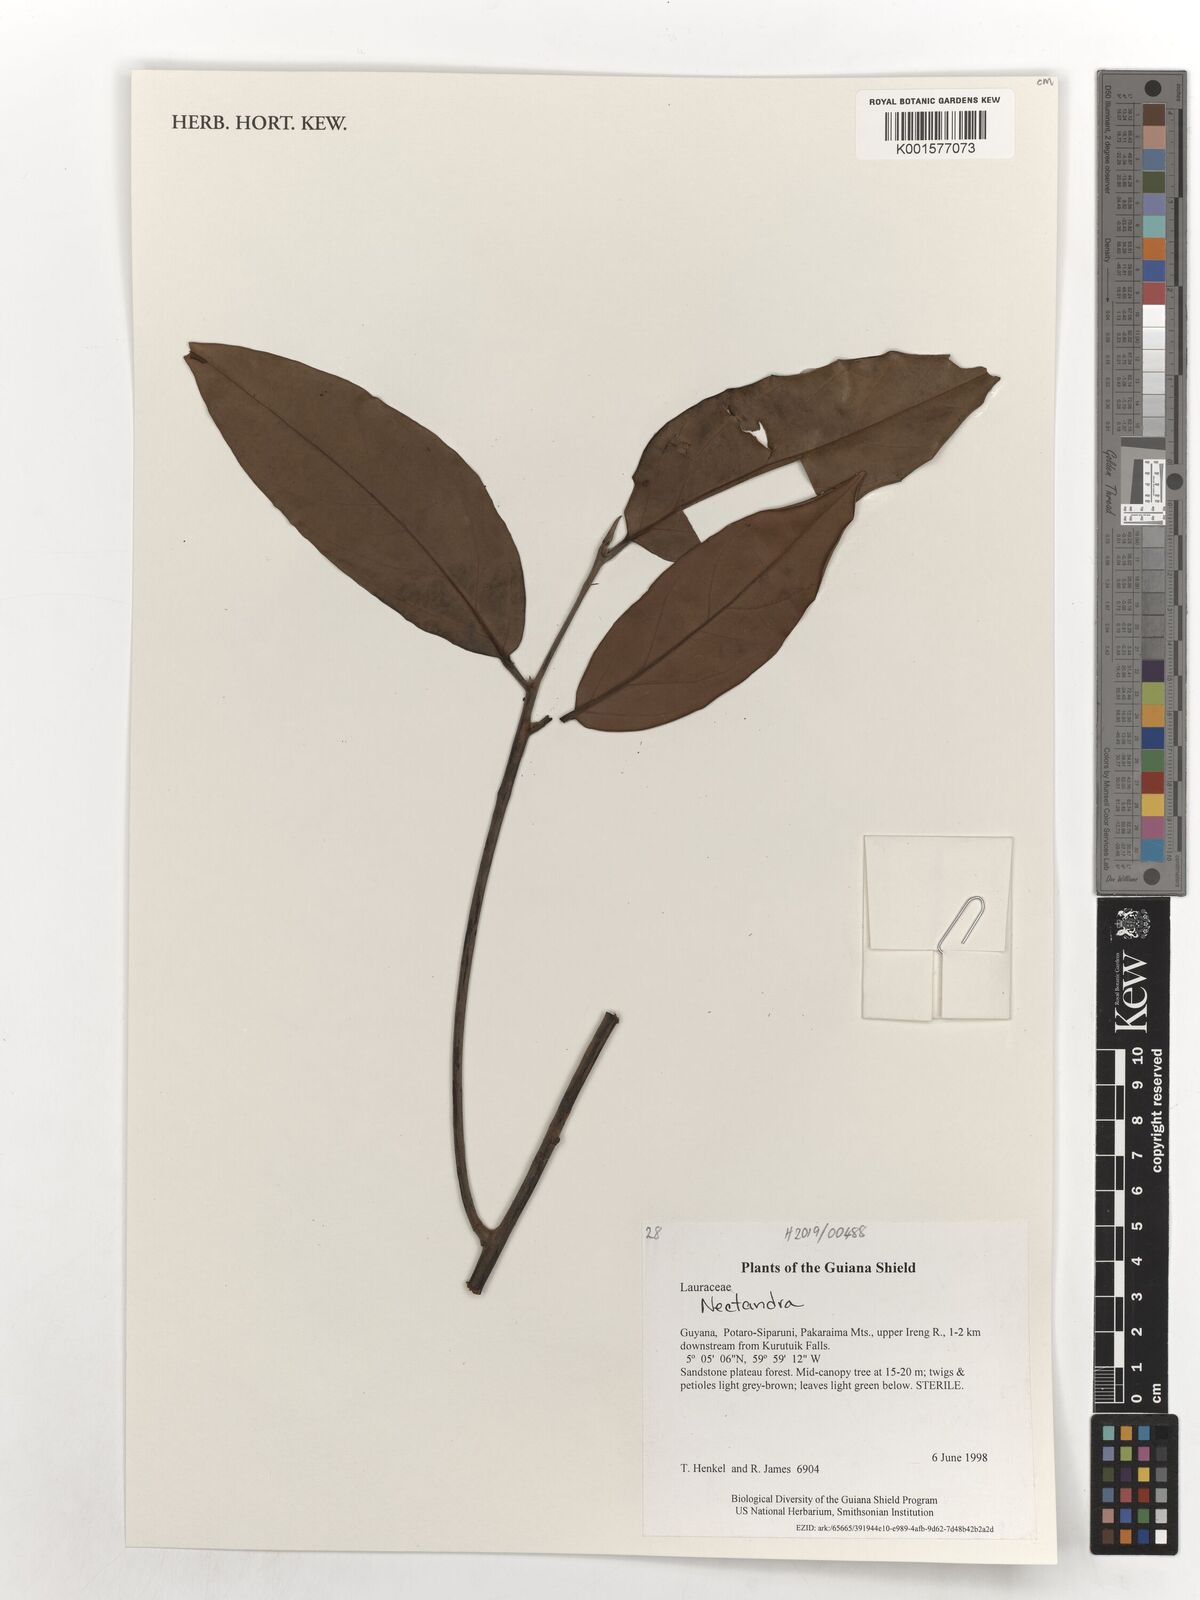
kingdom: Plantae
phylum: Tracheophyta
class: Magnoliopsida
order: Laurales
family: Lauraceae
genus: Nectandra
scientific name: Nectandra
